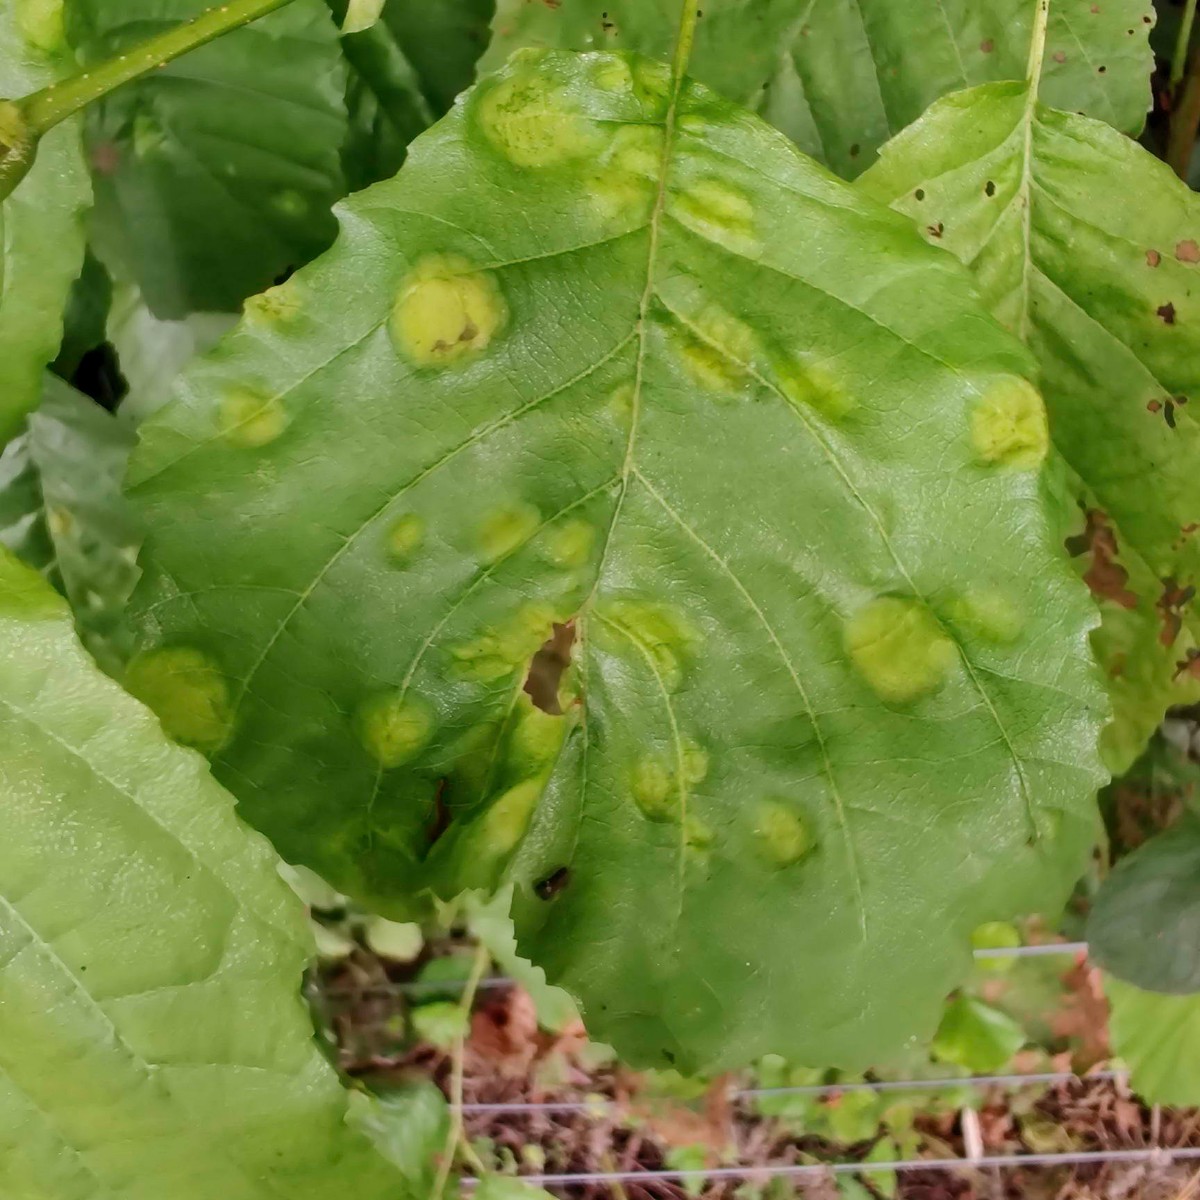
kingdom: Fungi
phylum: Ascomycota
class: Taphrinomycetes
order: Taphrinales
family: Taphrinaceae
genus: Taphrina
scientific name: Taphrina sadebeckii
